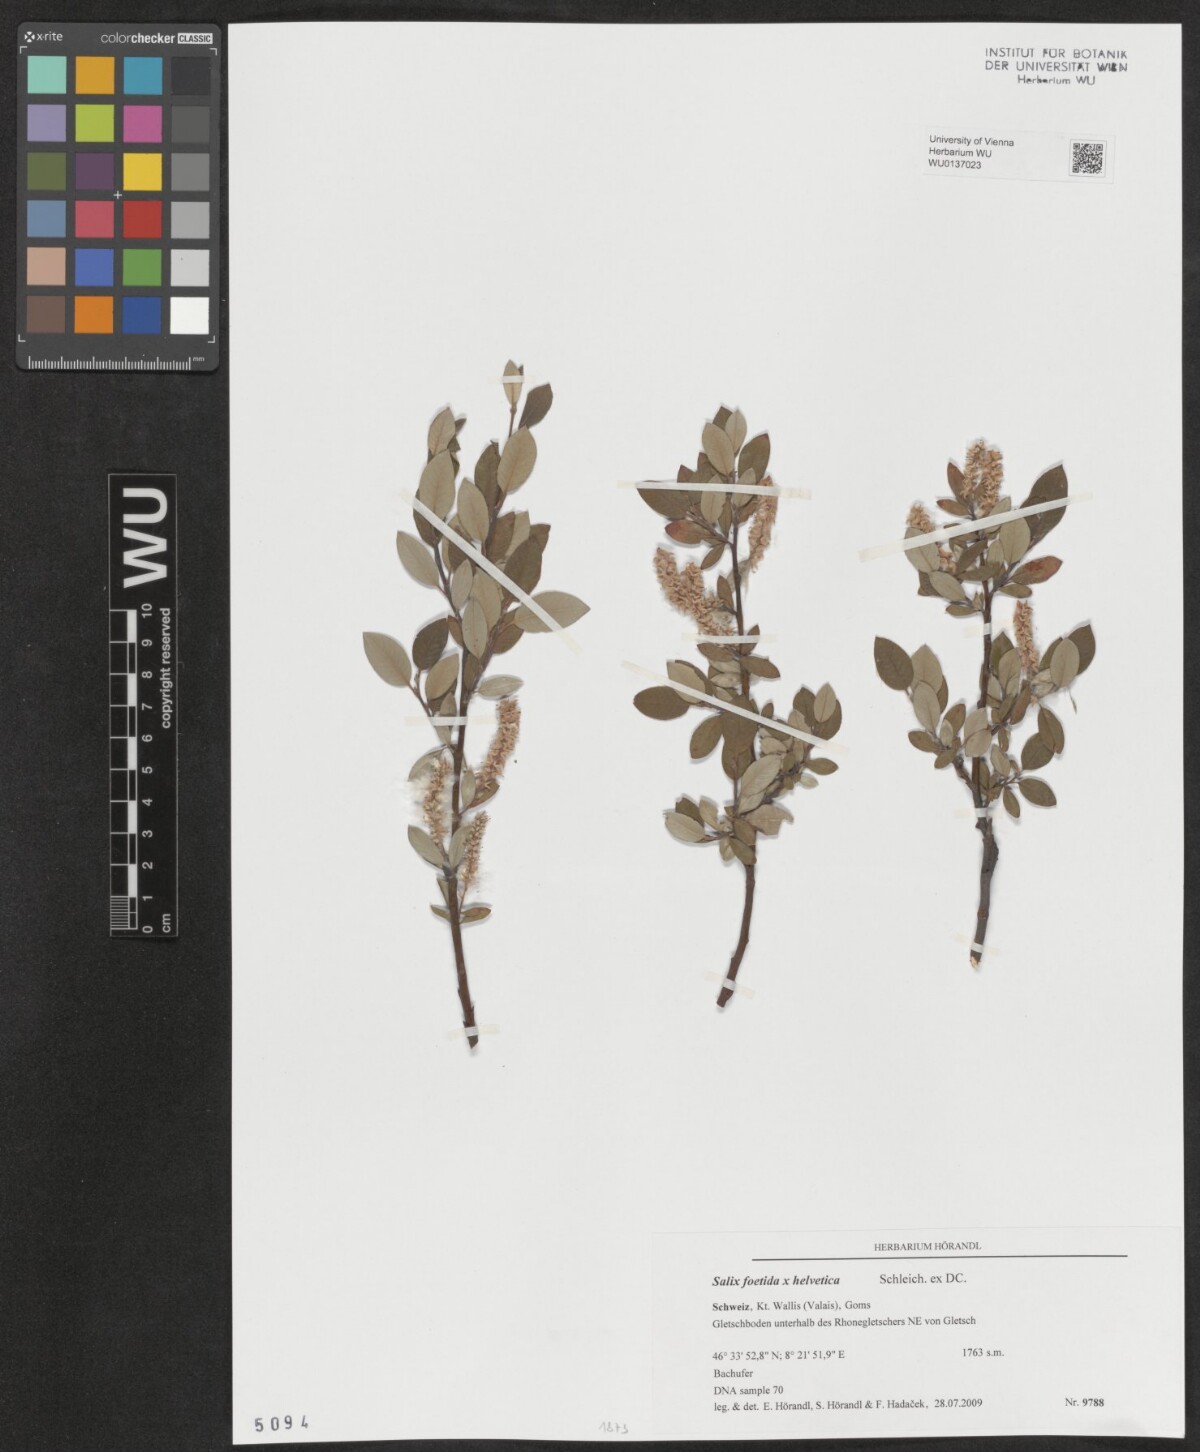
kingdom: Plantae
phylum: Tracheophyta
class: Magnoliopsida
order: Malpighiales
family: Salicaceae
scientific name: Salicaceae
